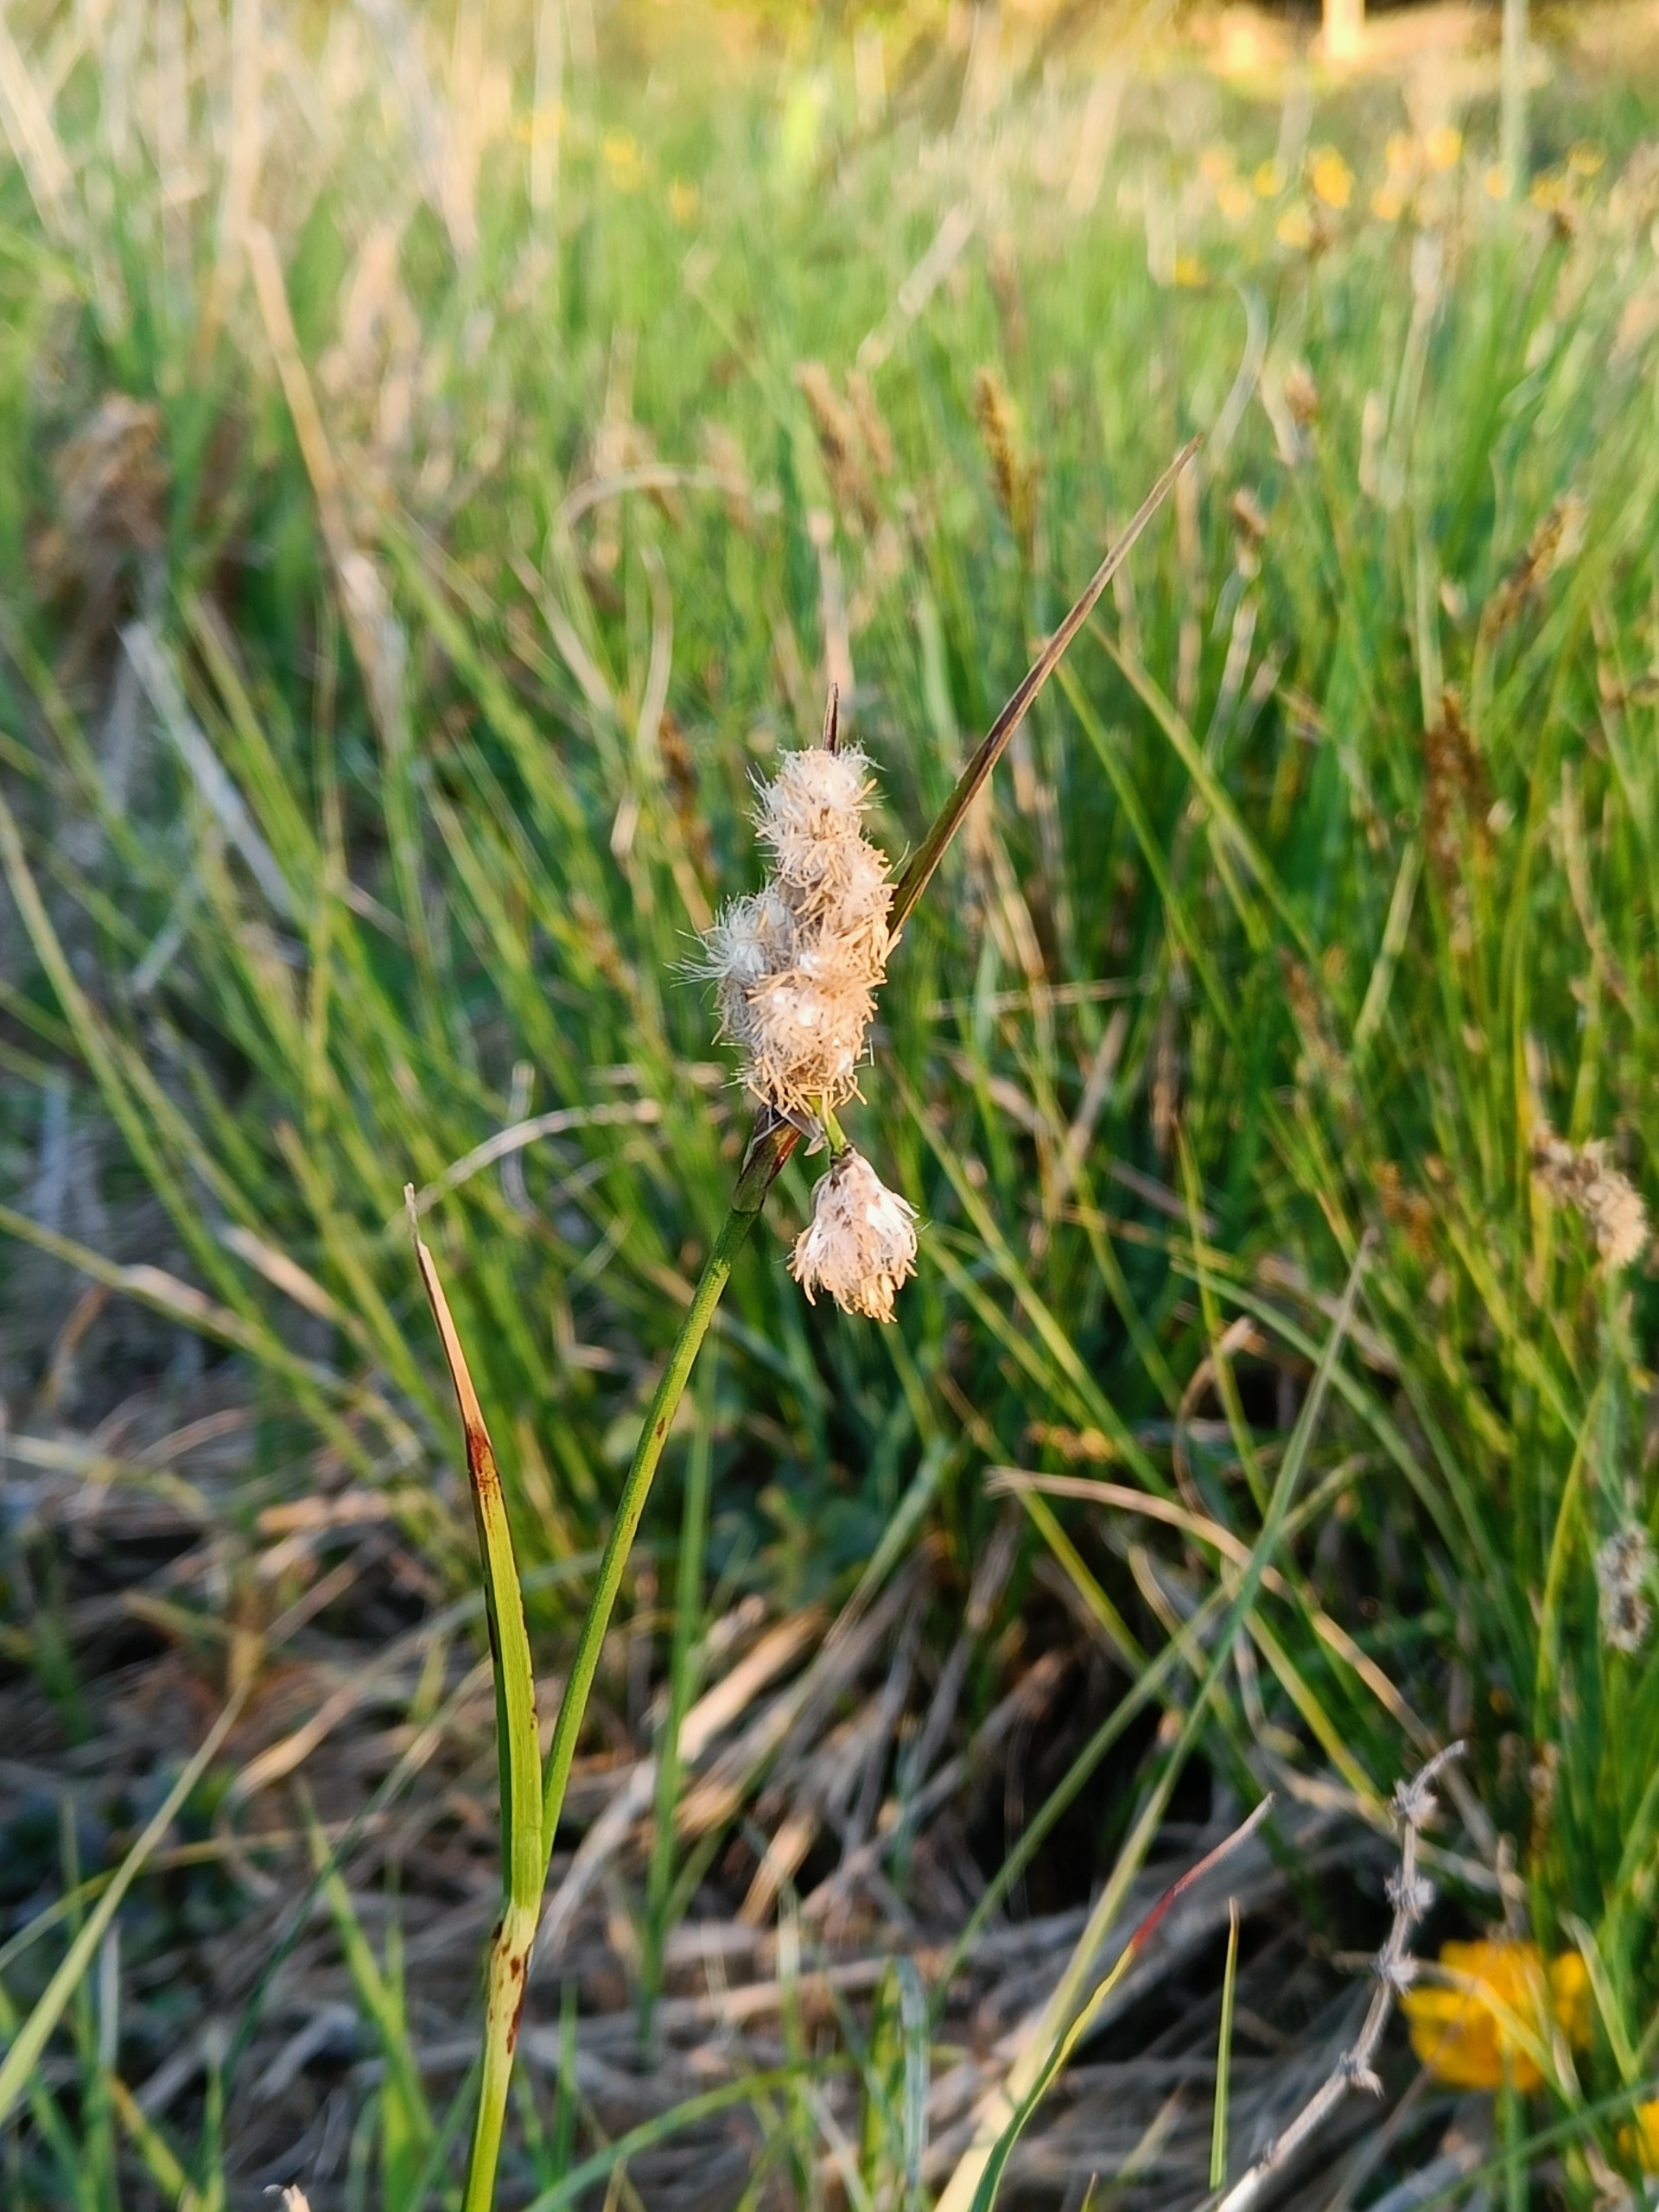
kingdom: Plantae
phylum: Tracheophyta
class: Liliopsida
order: Poales
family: Cyperaceae
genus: Eriophorum
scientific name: Eriophorum angustifolium
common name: Smalbladet kæruld
